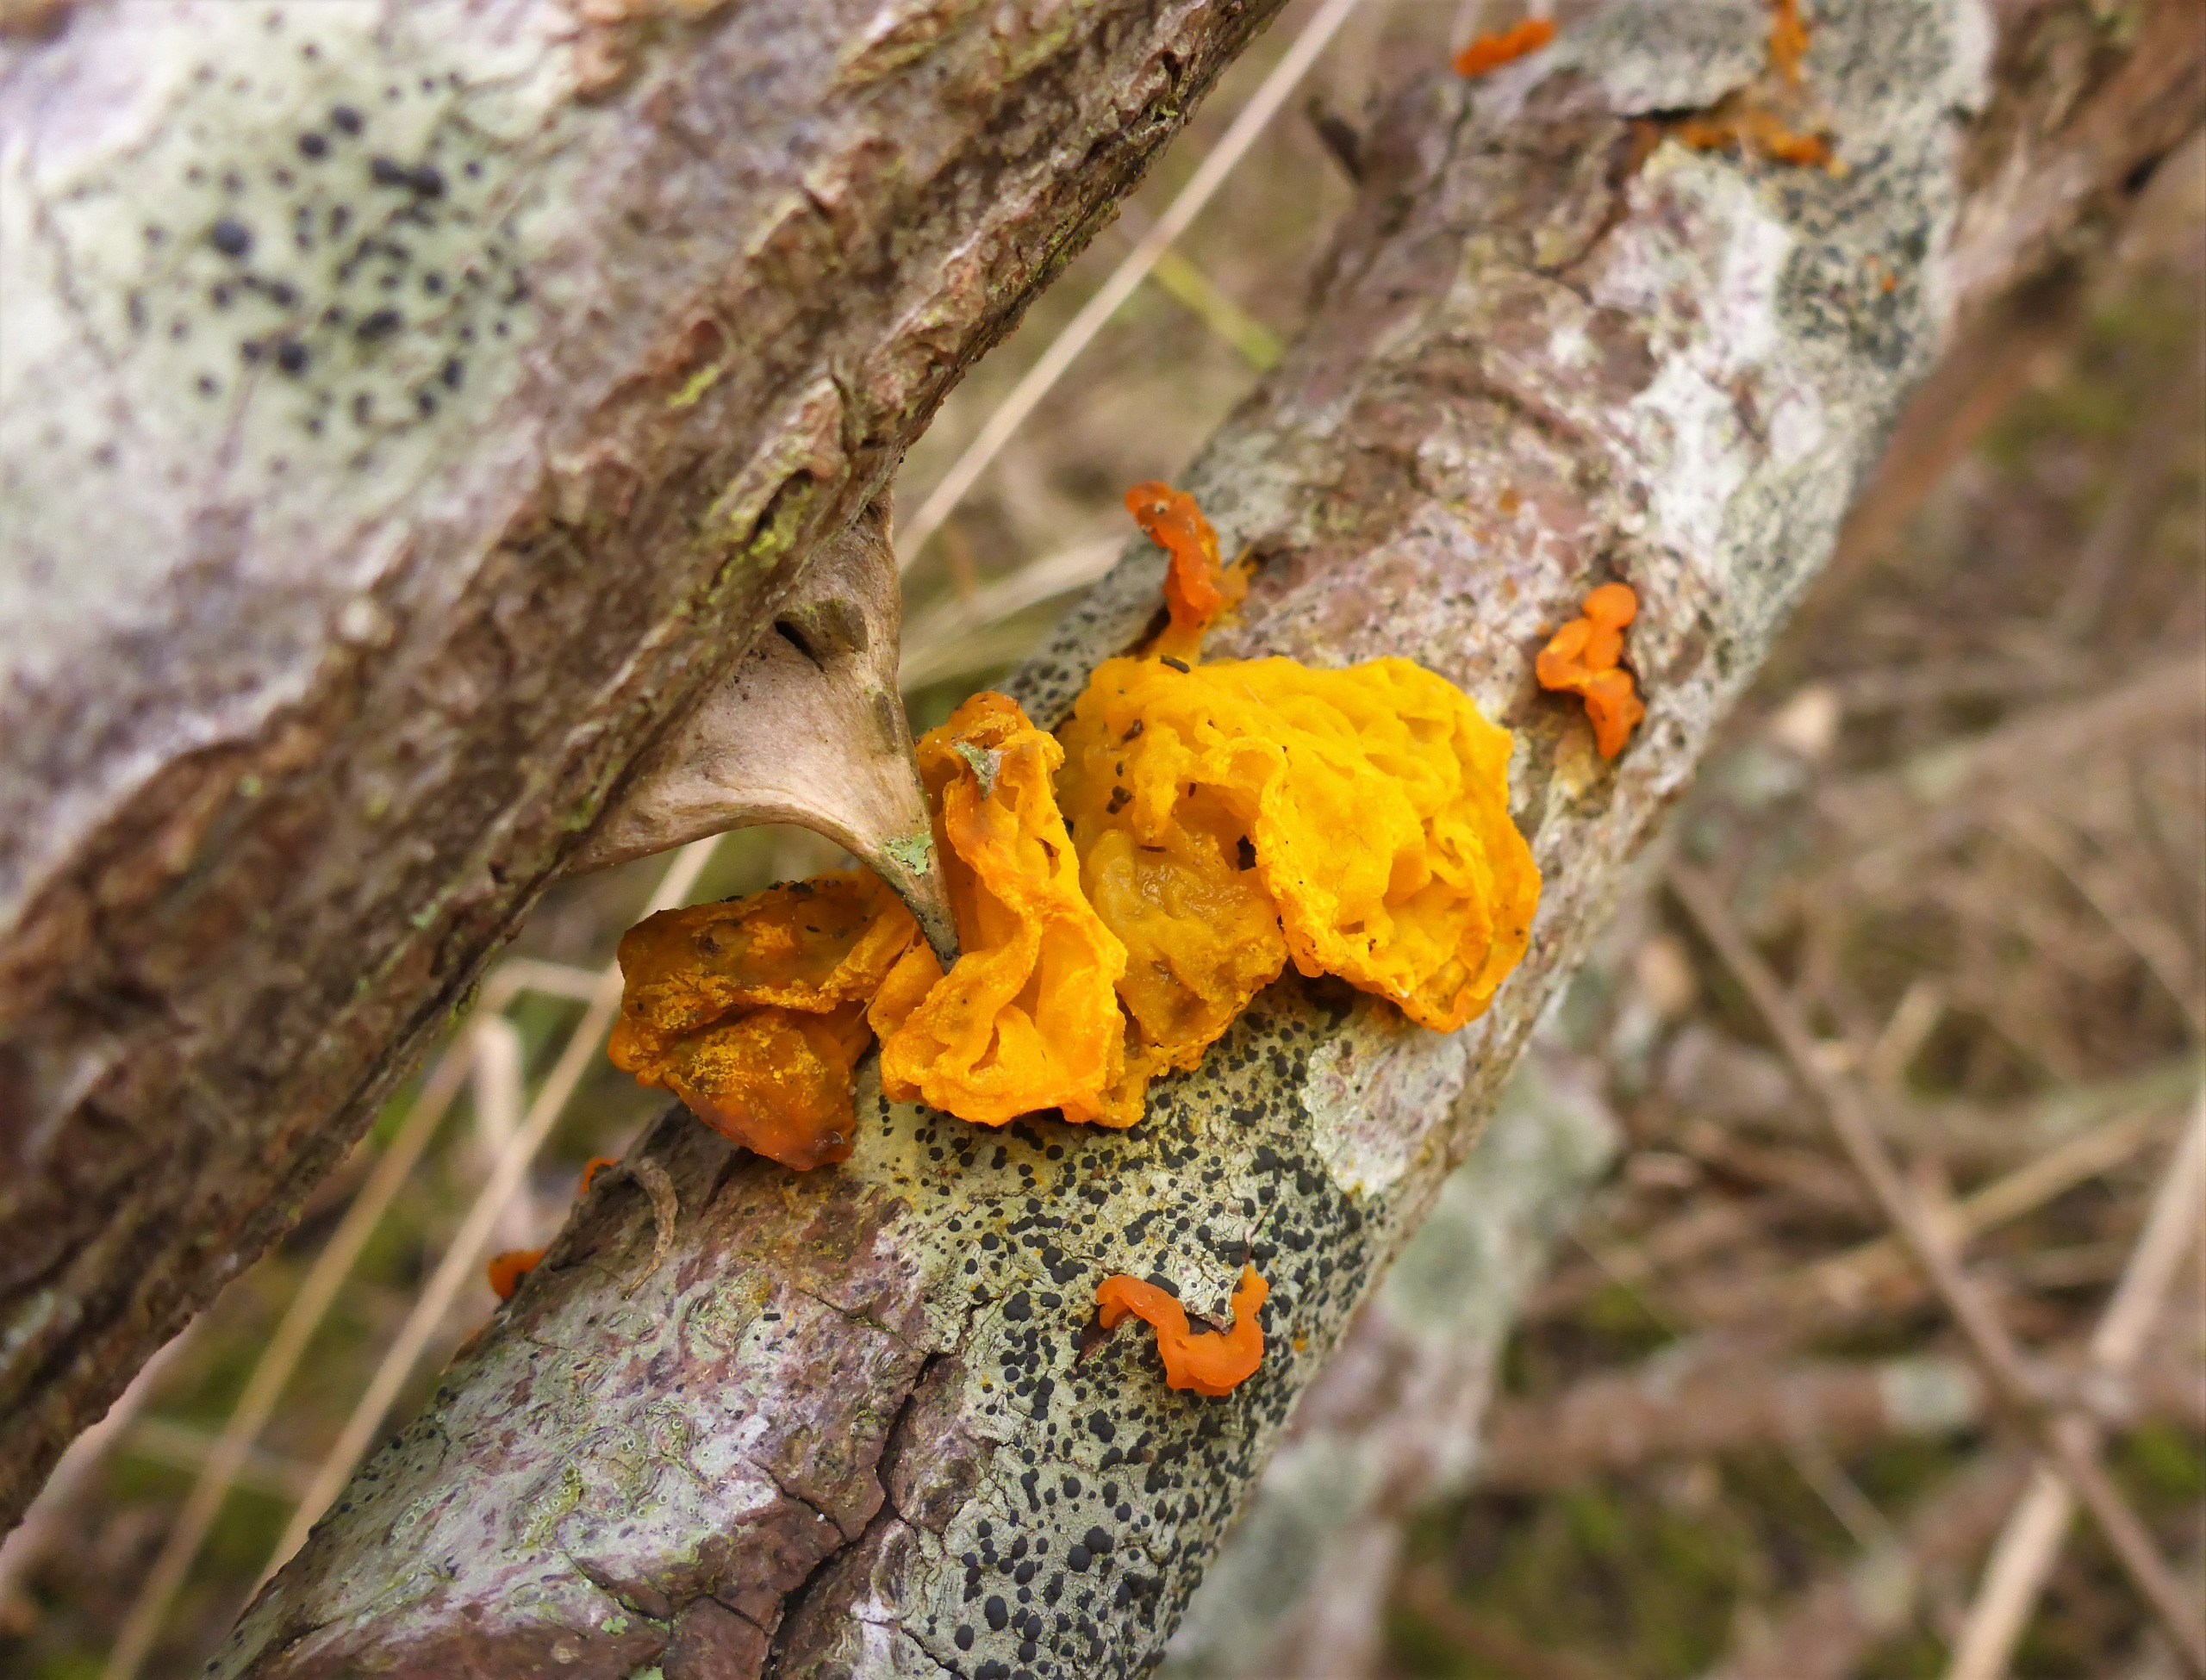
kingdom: Fungi
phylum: Basidiomycota
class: Tremellomycetes
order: Tremellales
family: Tremellaceae
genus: Tremella
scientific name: Tremella mesenterica
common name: Gul bævresvamp
